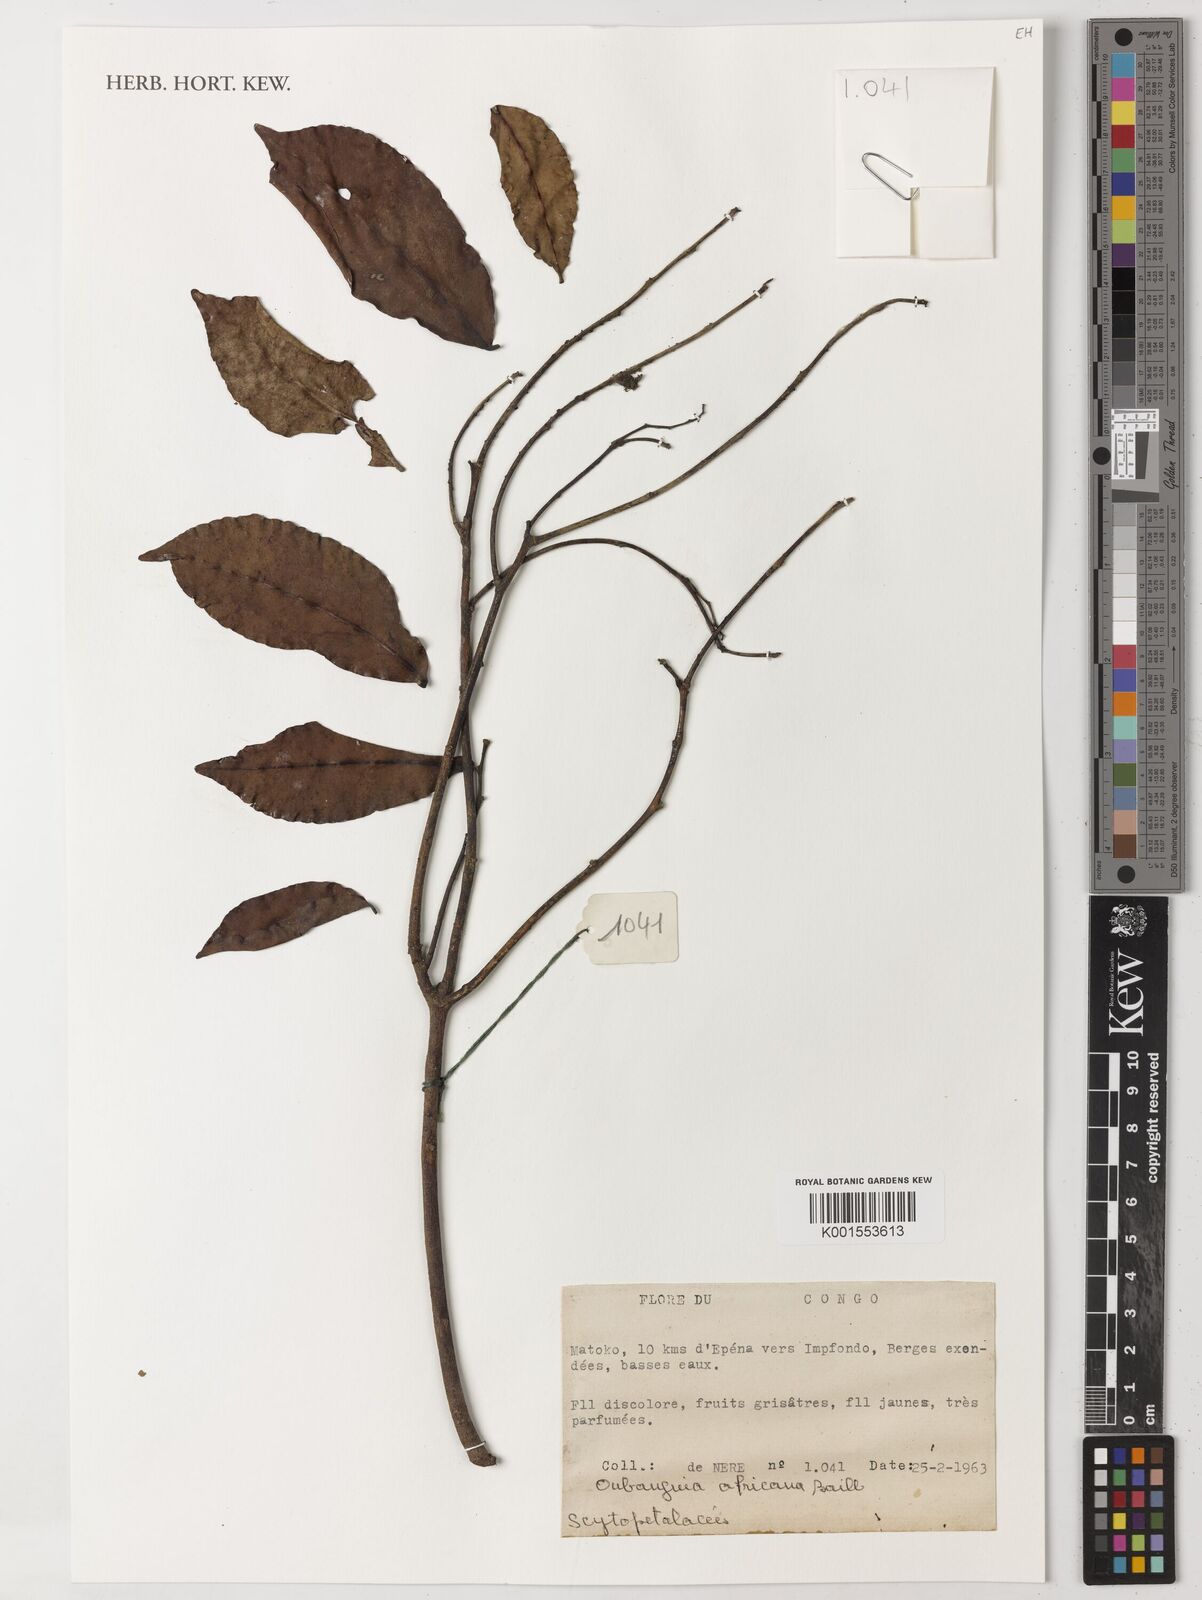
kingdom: Plantae
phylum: Tracheophyta
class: Magnoliopsida
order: Ericales
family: Lecythidaceae
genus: Oubanguia
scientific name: Oubanguia africana
